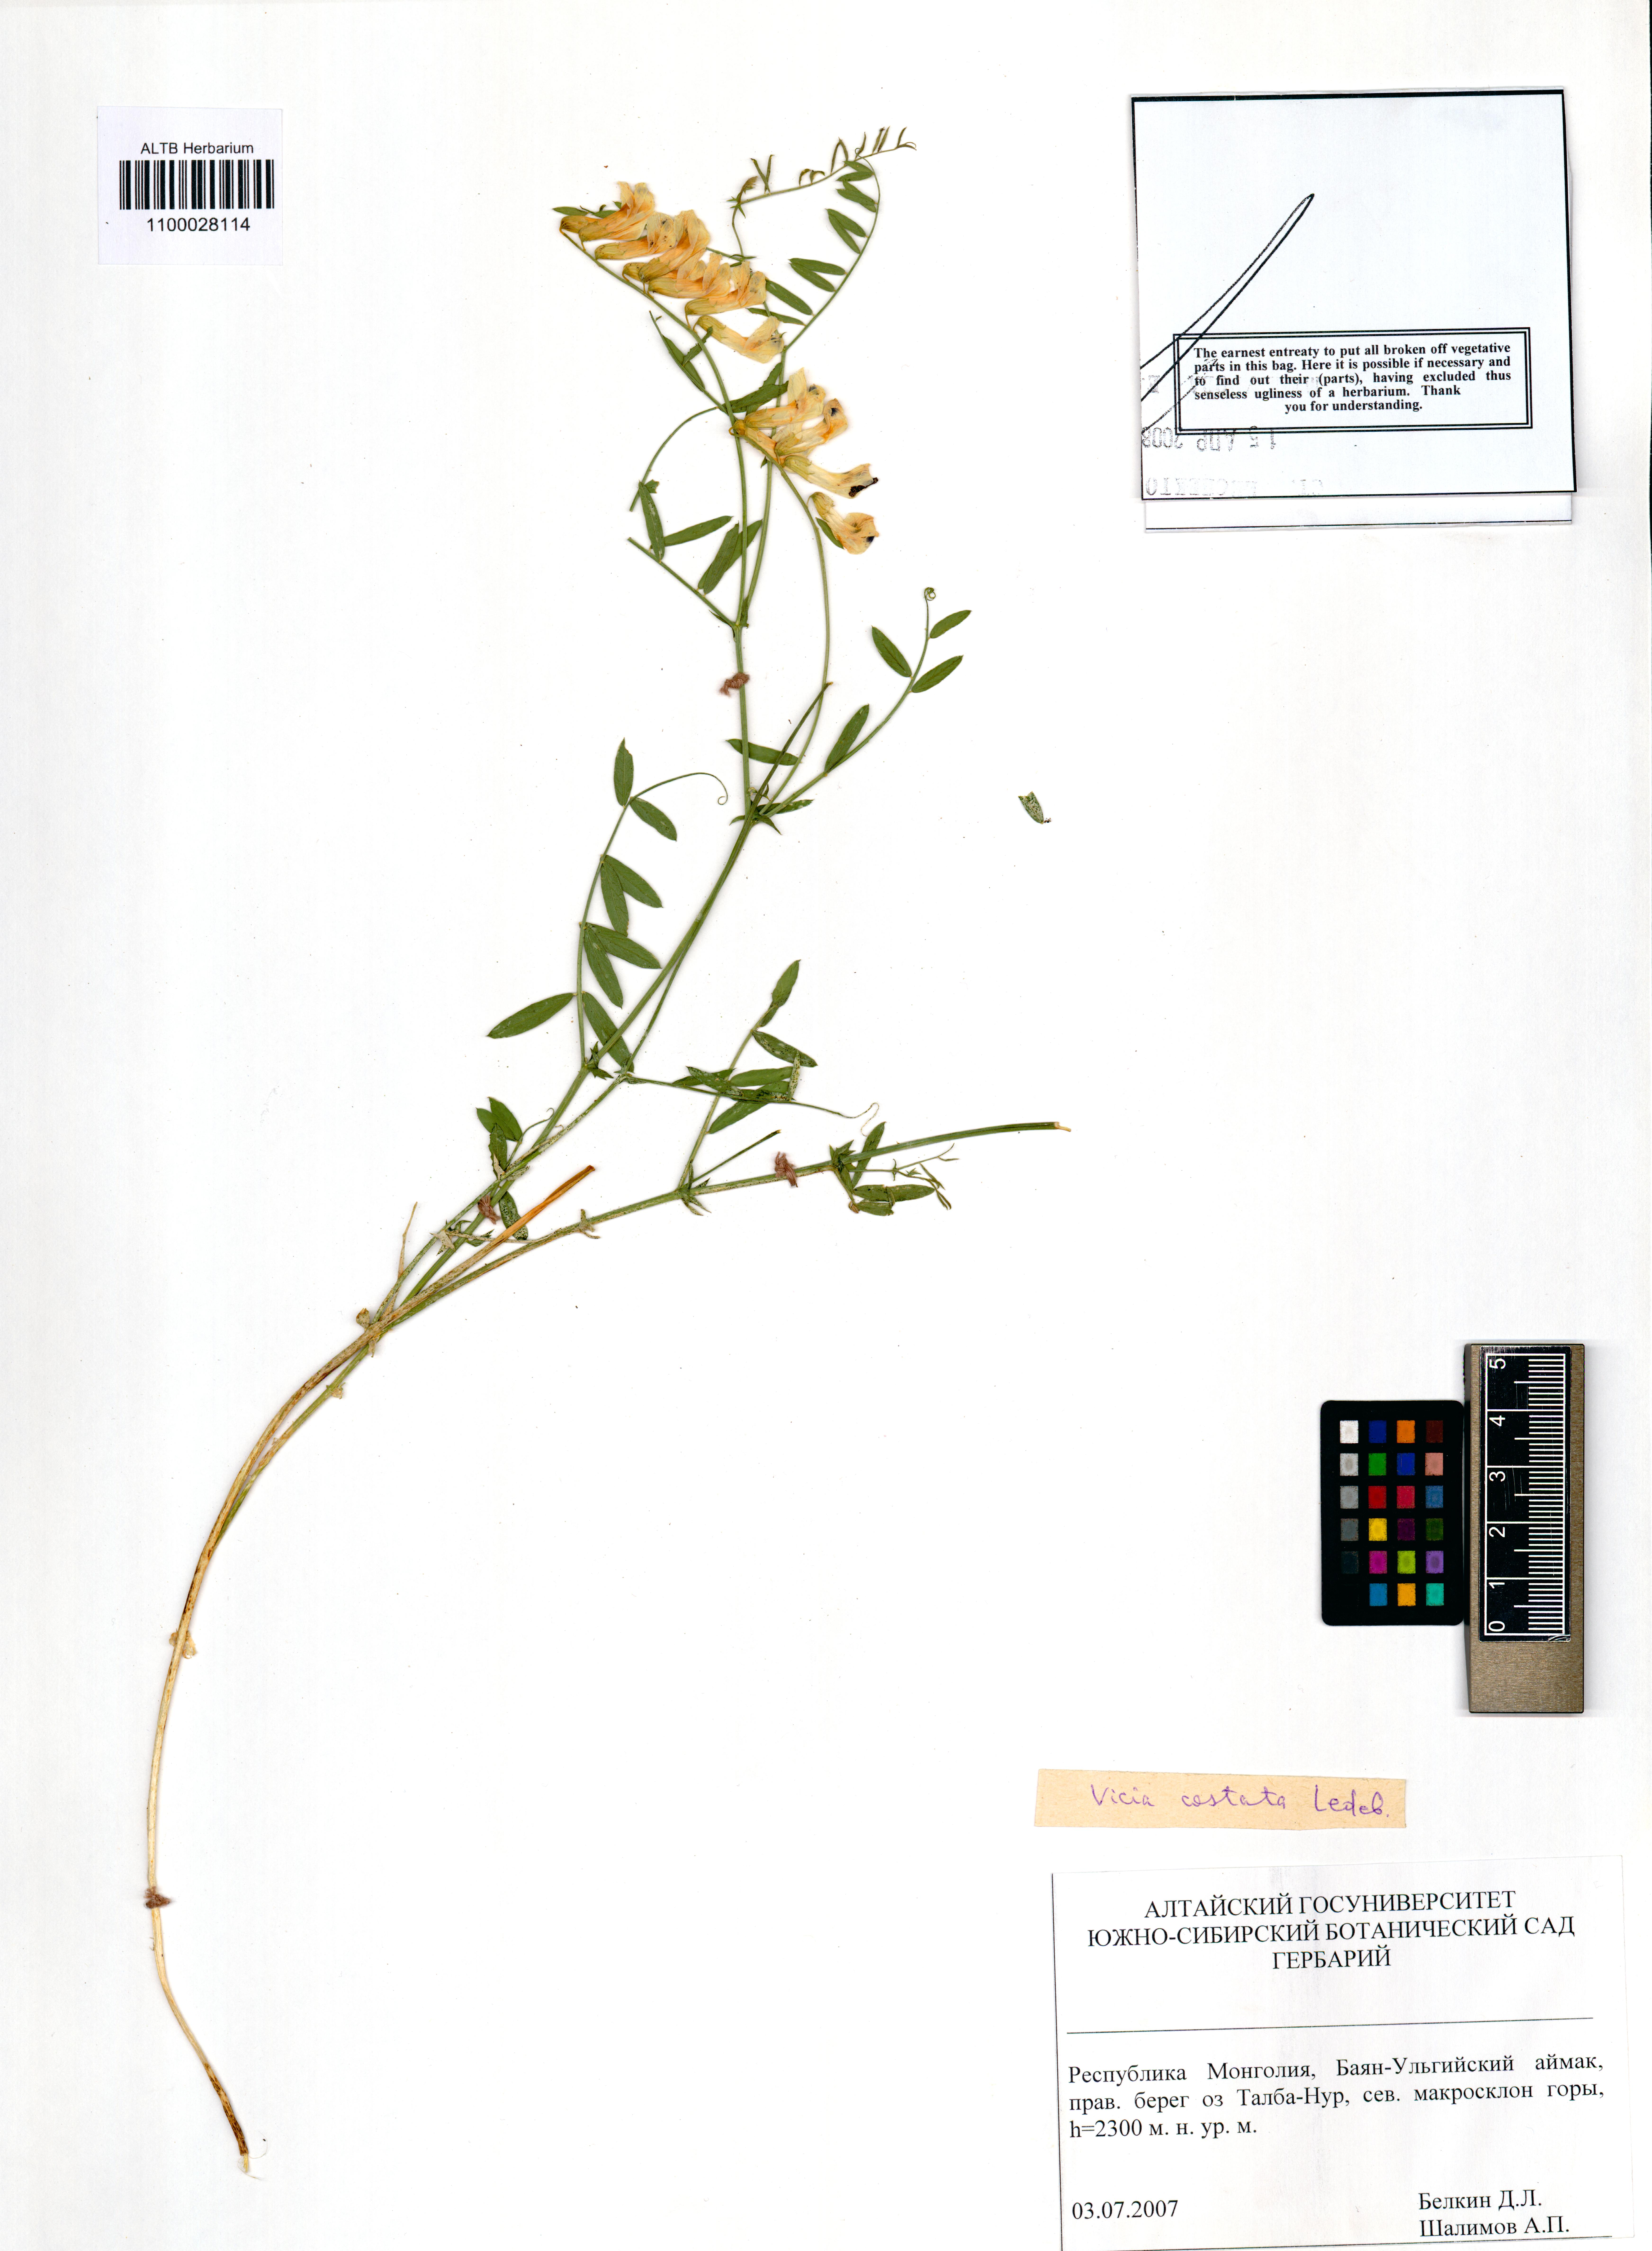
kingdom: Plantae
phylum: Tracheophyta
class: Magnoliopsida
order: Fabales
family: Fabaceae
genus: Vicia
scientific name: Vicia costata
